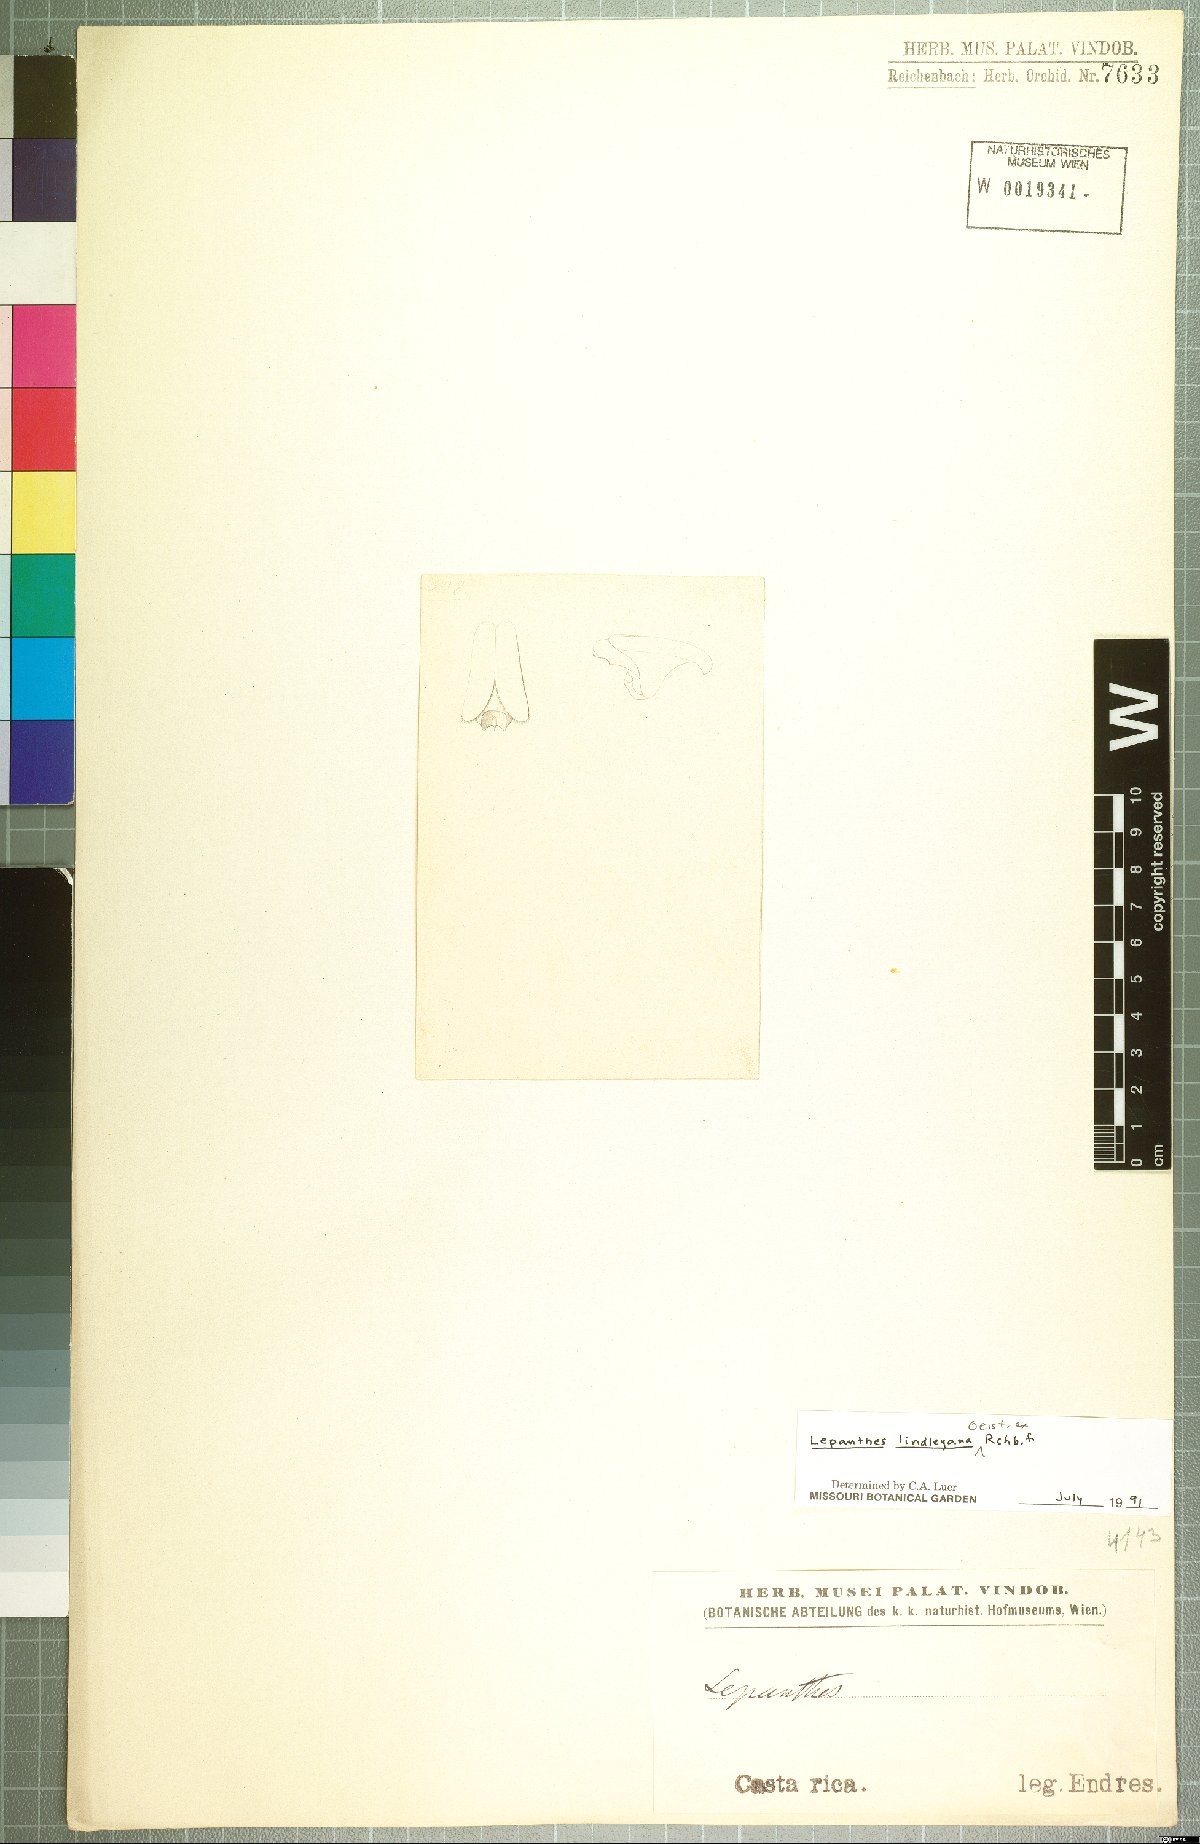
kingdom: Plantae
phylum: Tracheophyta
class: Liliopsida
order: Asparagales
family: Orchidaceae
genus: Lepanthes
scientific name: Lepanthes lindleyana
